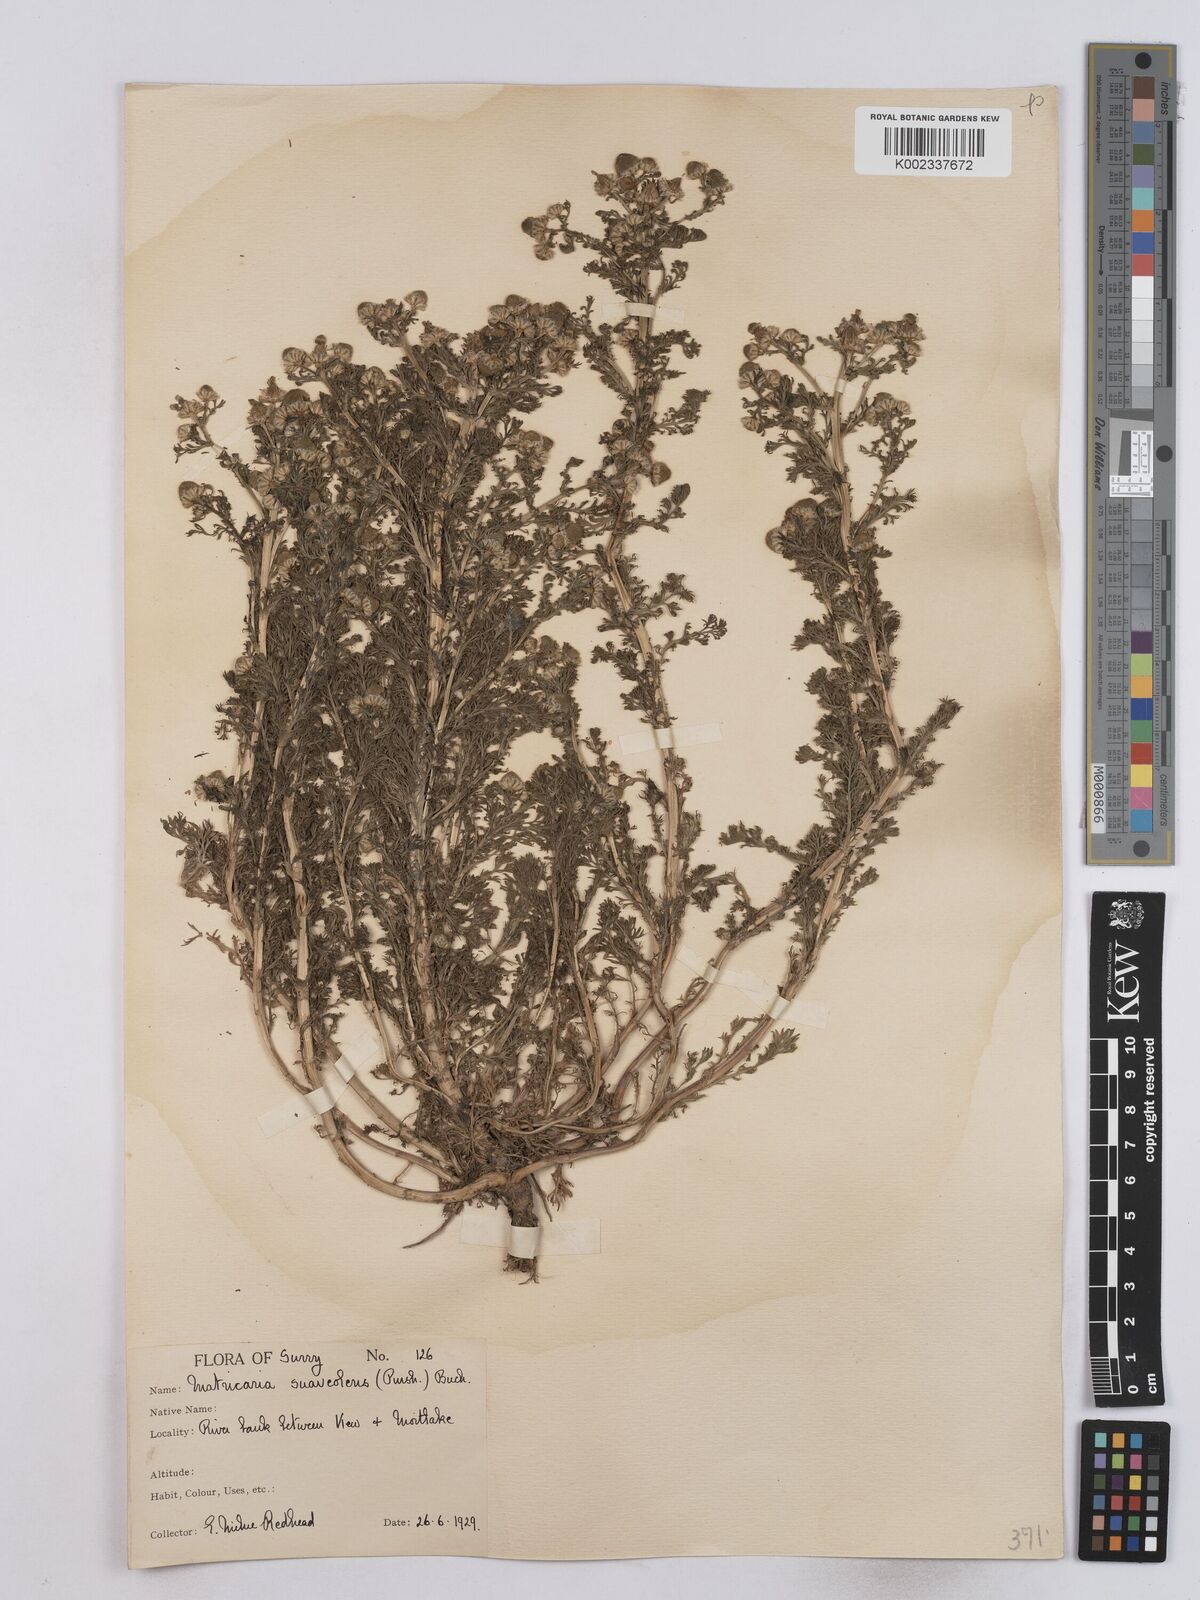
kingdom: Plantae
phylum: Tracheophyta
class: Magnoliopsida
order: Asterales
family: Asteraceae
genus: Matricaria
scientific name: Matricaria discoidea
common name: Disc mayweed
